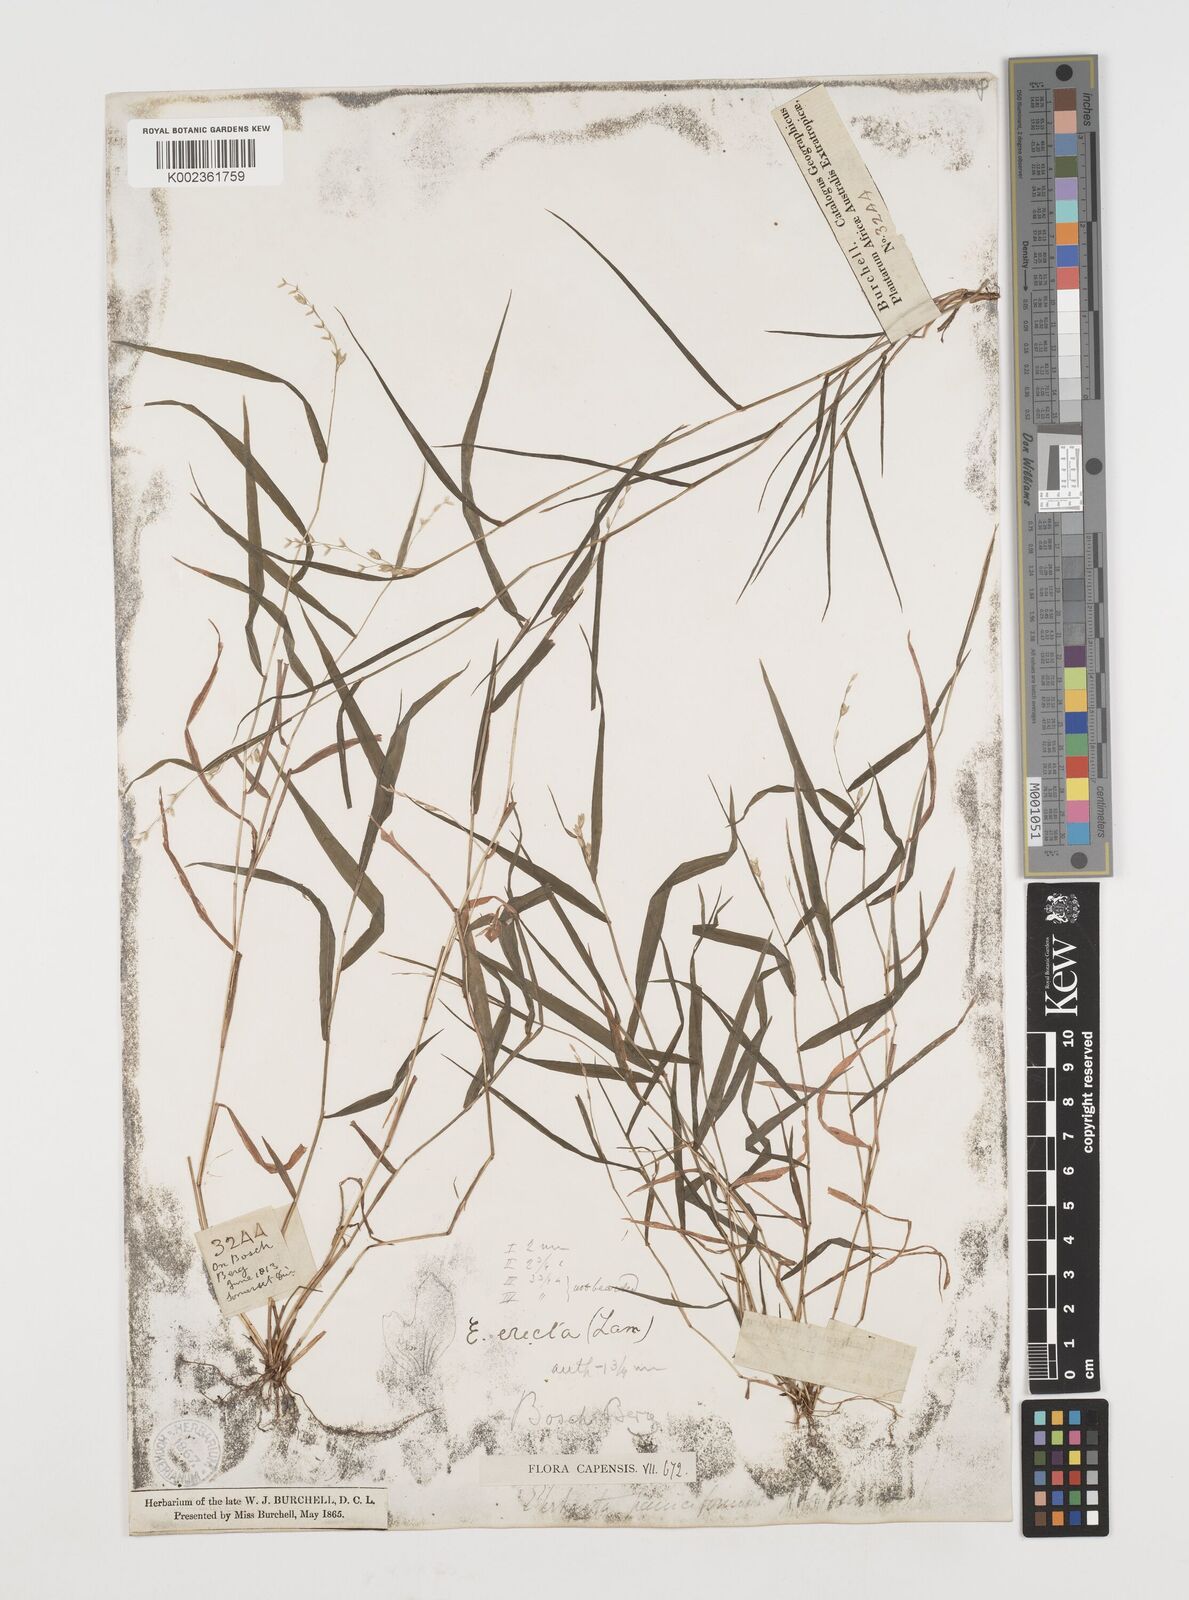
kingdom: Plantae
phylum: Tracheophyta
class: Liliopsida
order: Poales
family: Poaceae
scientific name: Poaceae
